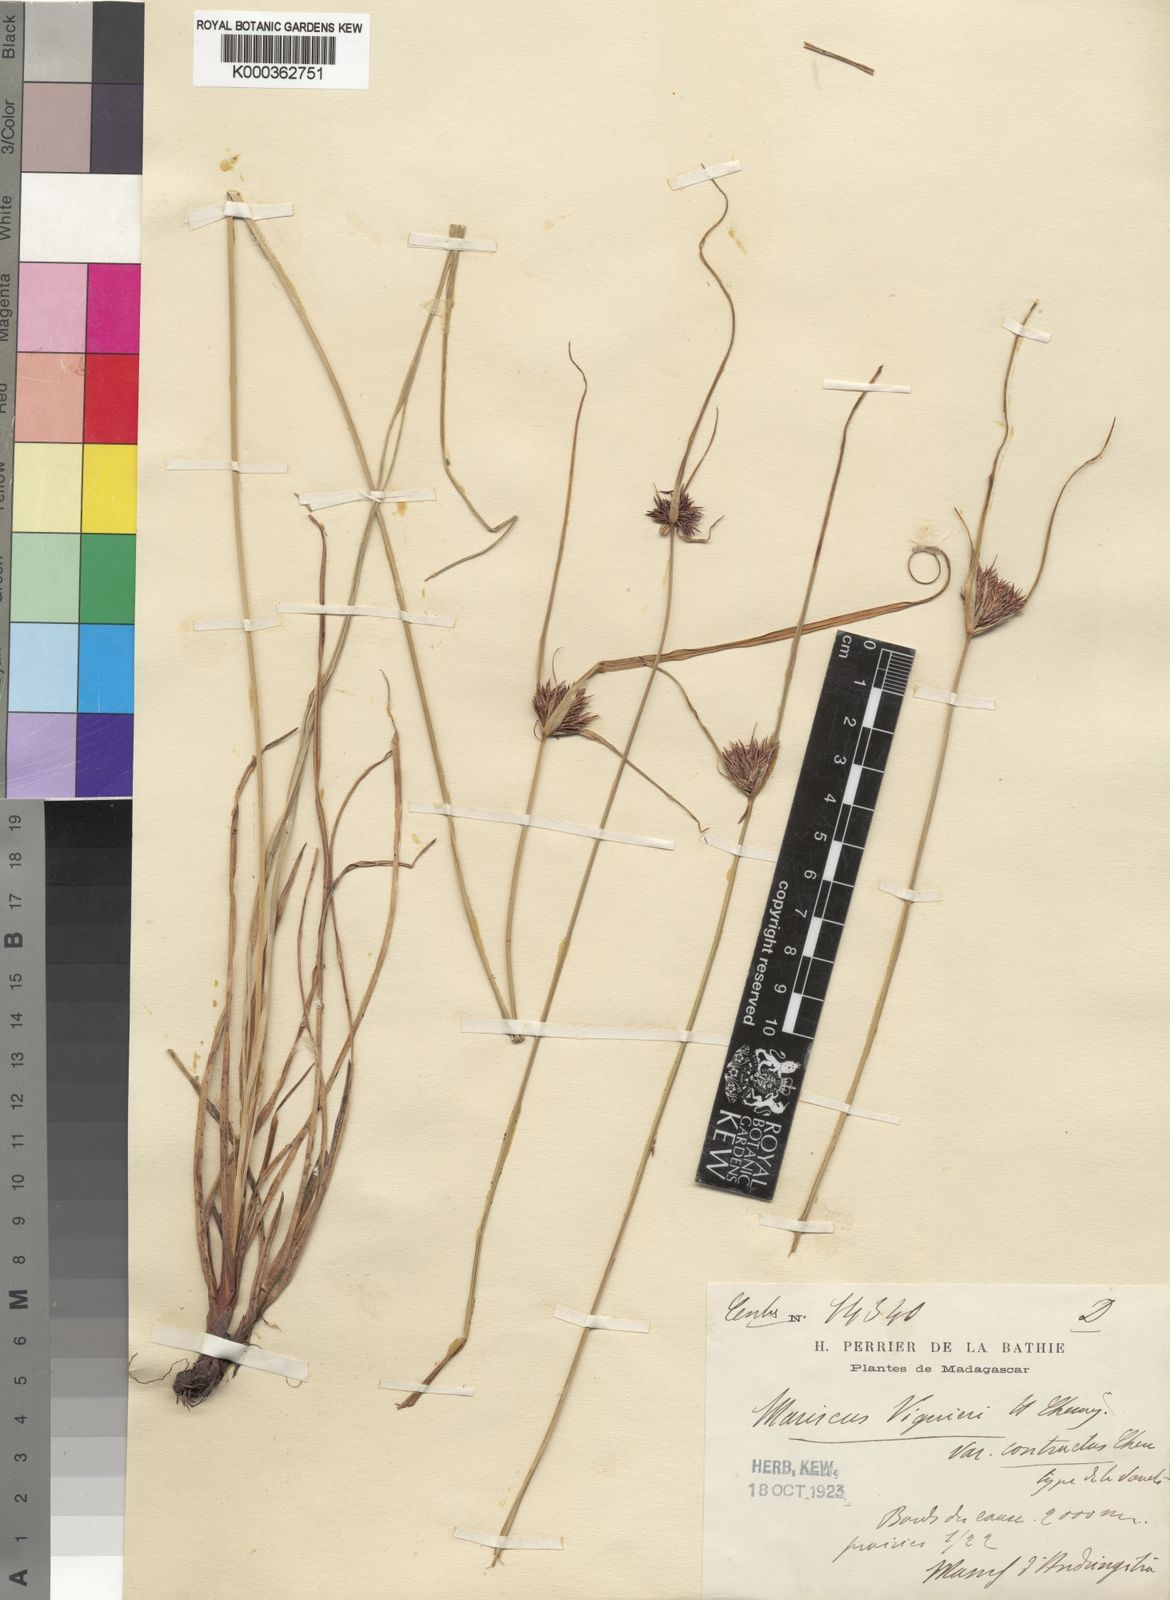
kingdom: Plantae
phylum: Tracheophyta
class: Liliopsida
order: Poales
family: Cyperaceae
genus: Cyperus
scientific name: Cyperus impubes
